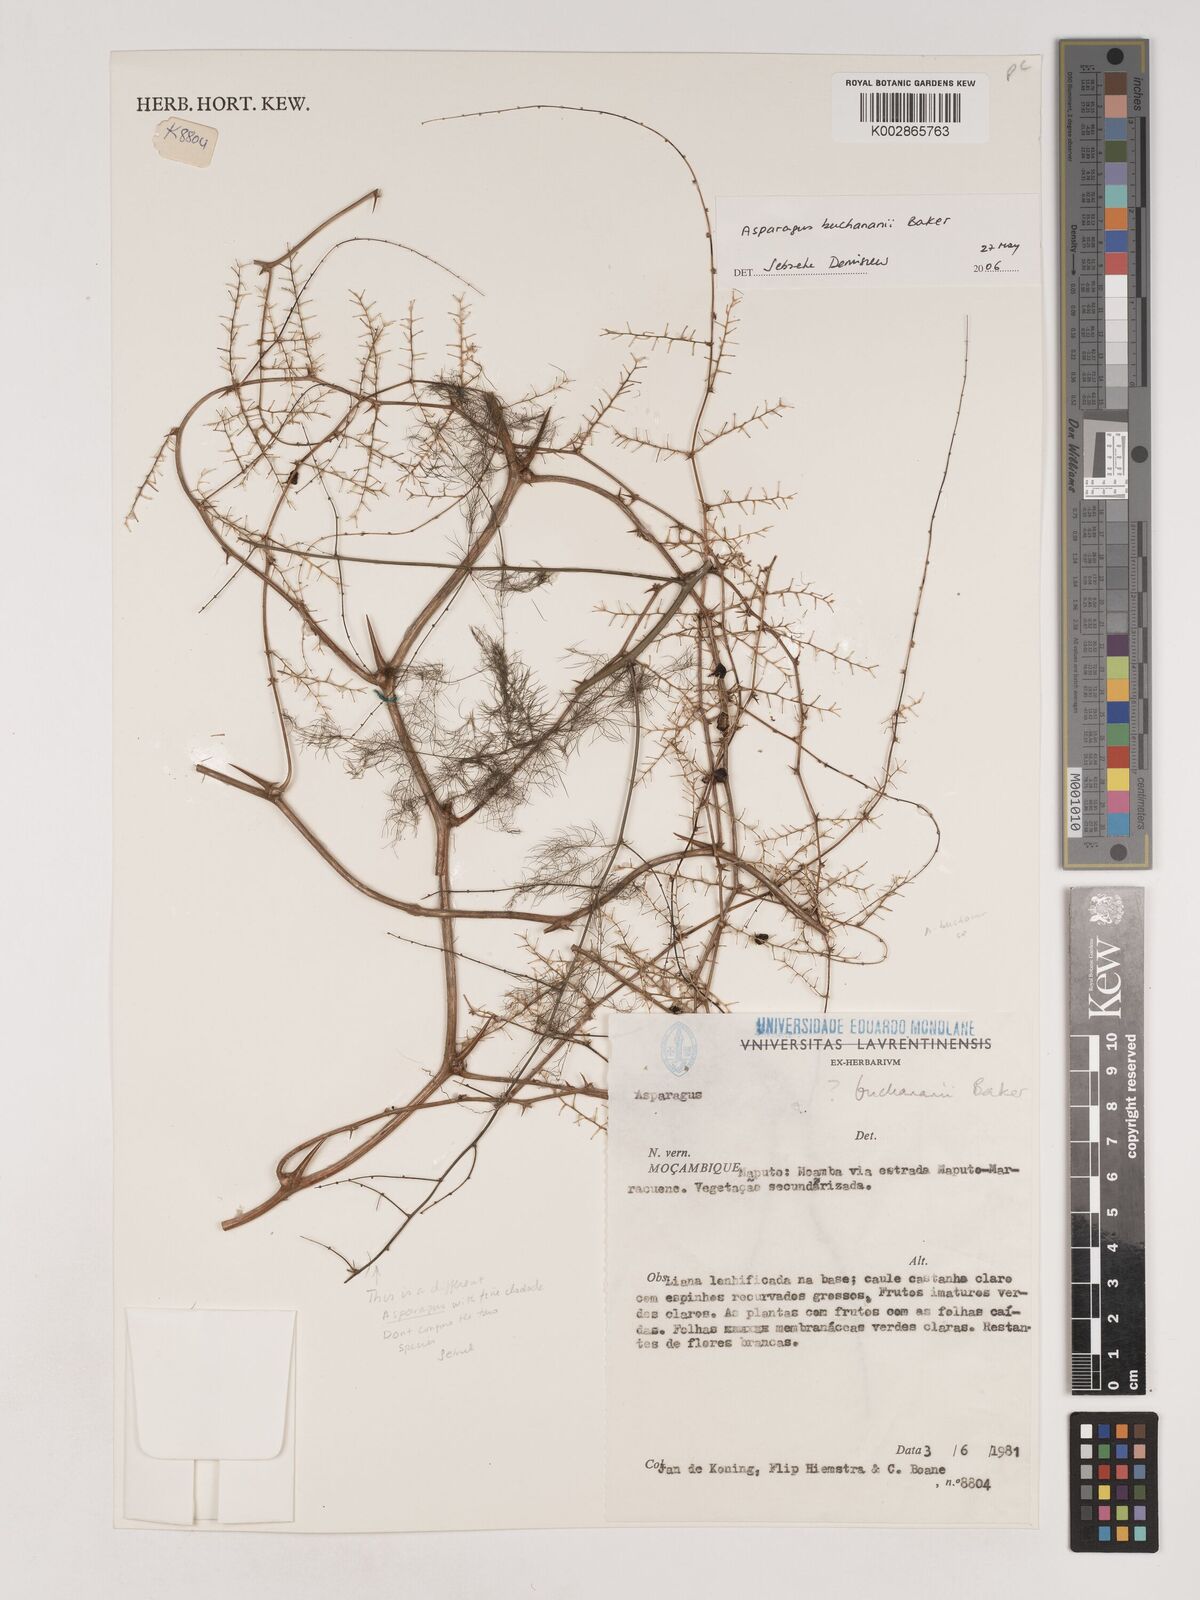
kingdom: Plantae
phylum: Tracheophyta
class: Liliopsida
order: Asparagales
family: Asparagaceae
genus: Asparagus
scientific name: Asparagus buchananii
